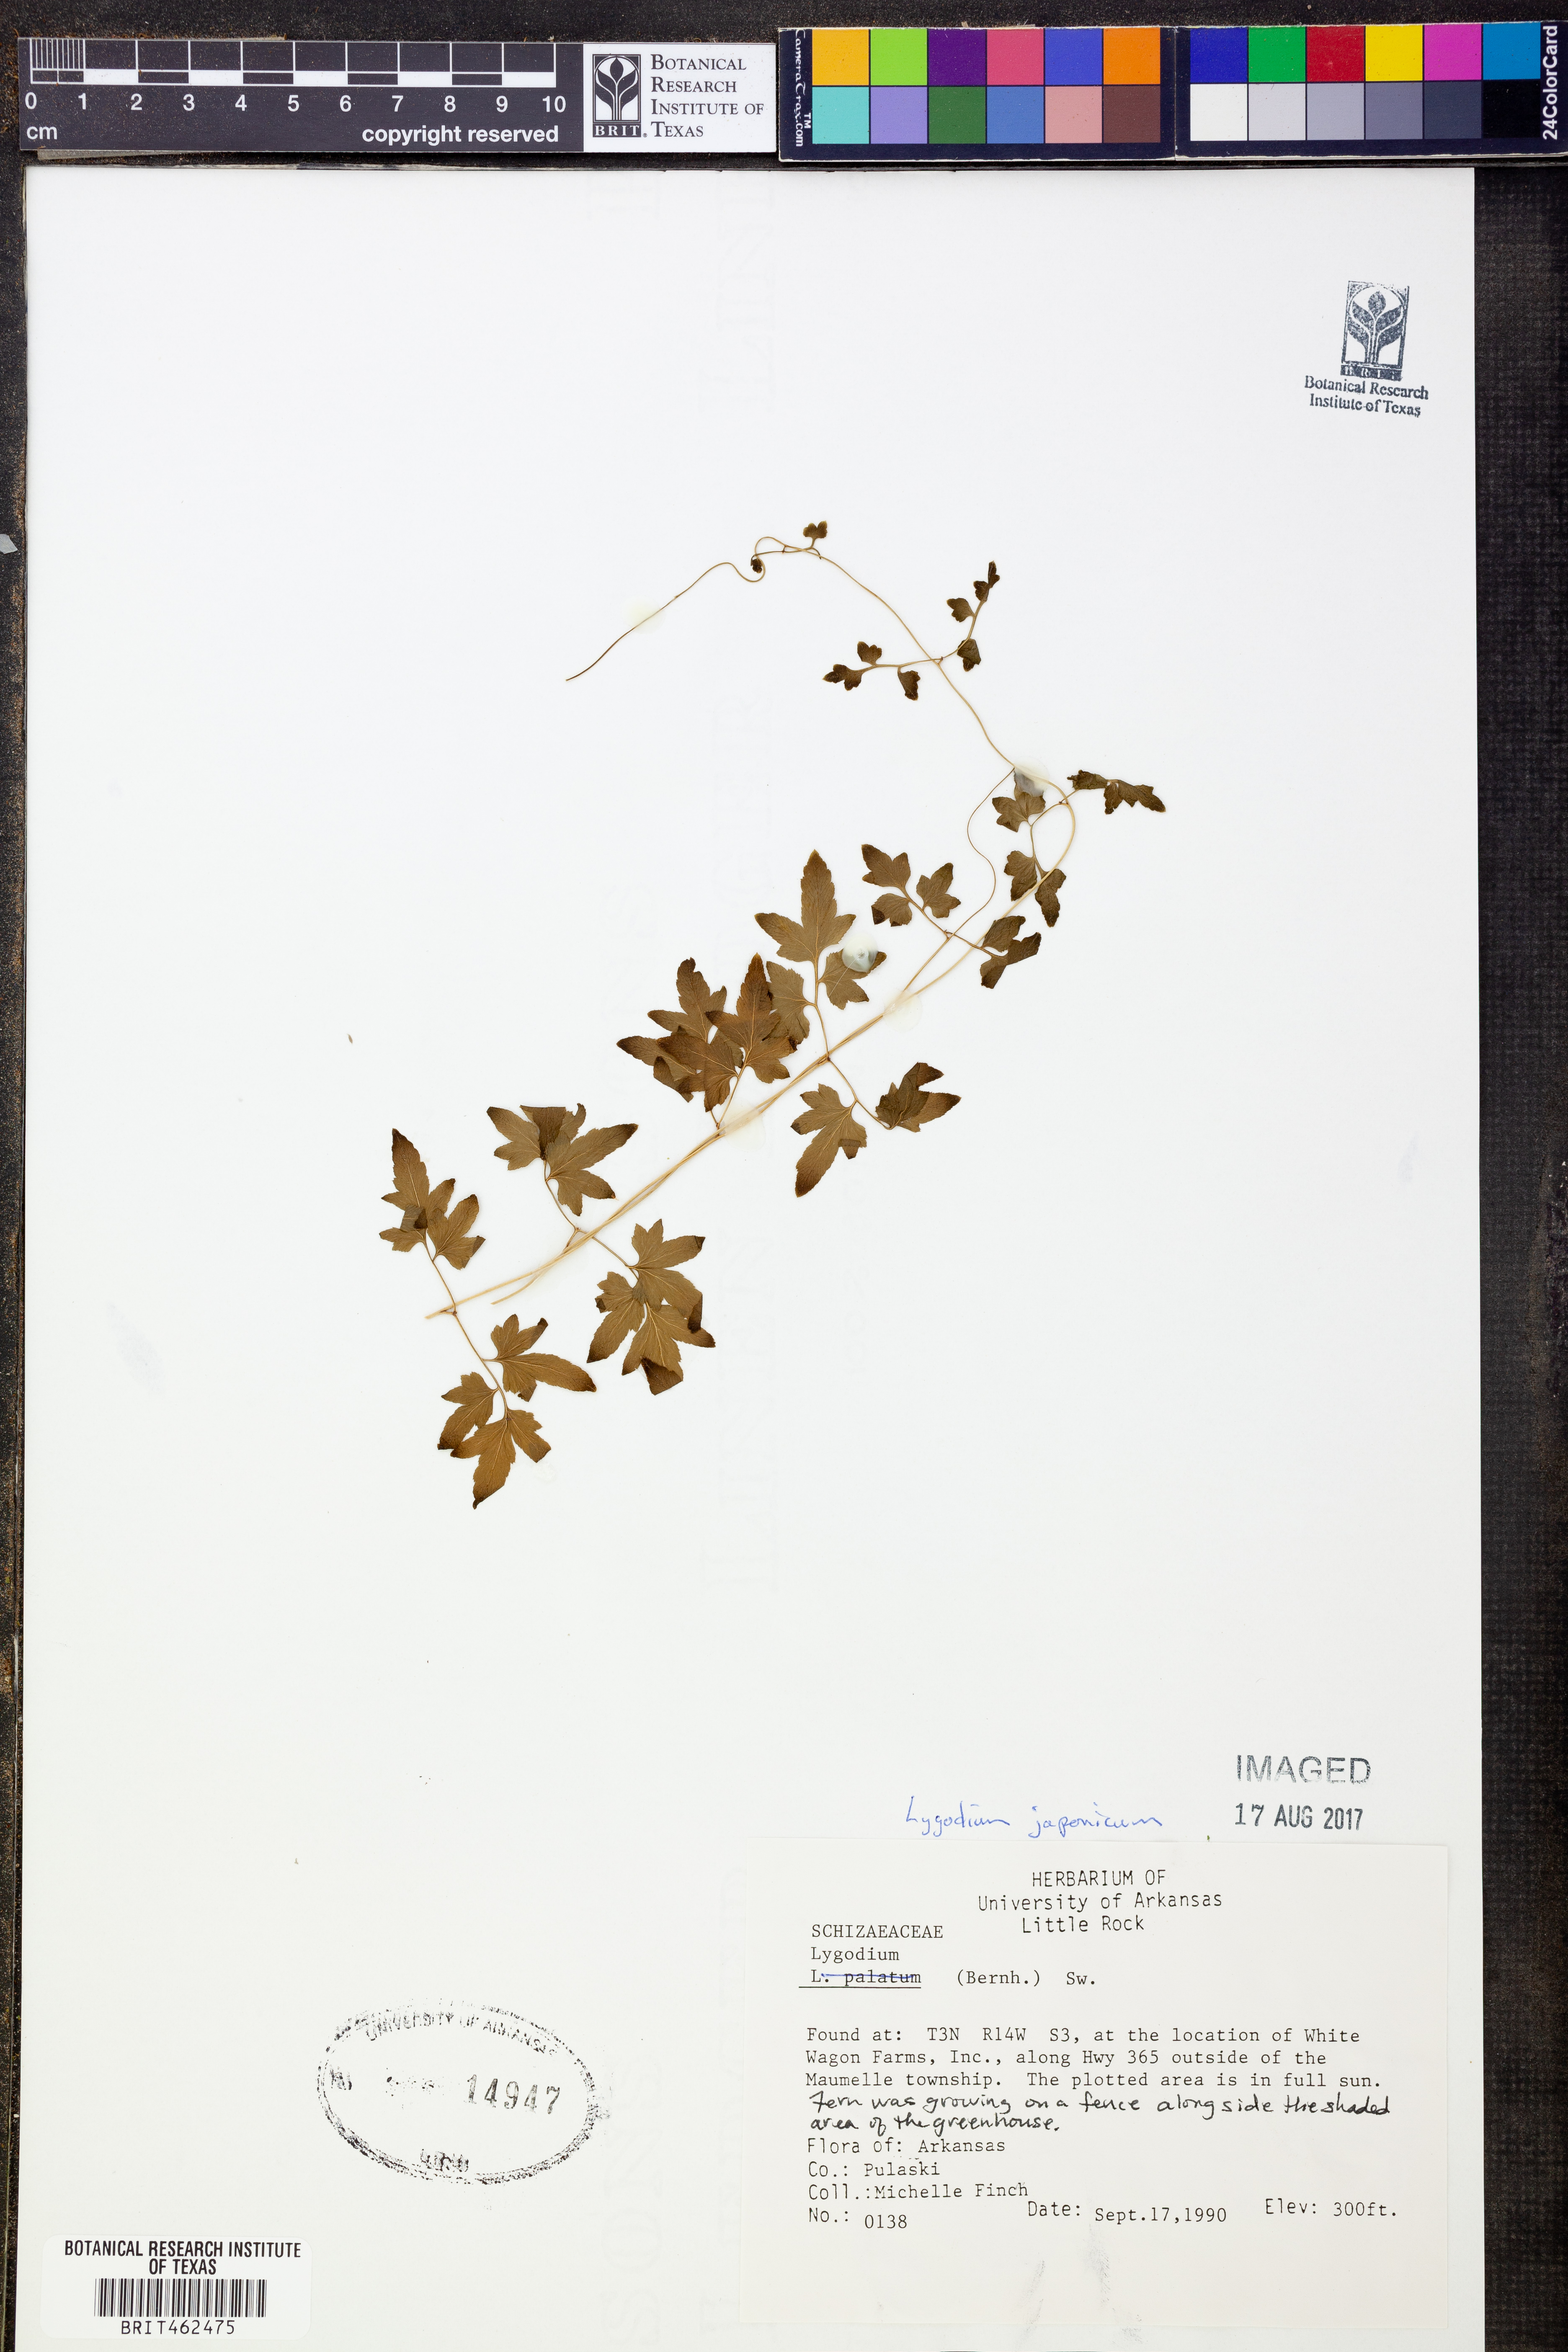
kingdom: Plantae
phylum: Tracheophyta
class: Polypodiopsida
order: Schizaeales
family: Lygodiaceae
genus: Lygodium
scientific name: Lygodium japonicum
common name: Japanese climbing fern
